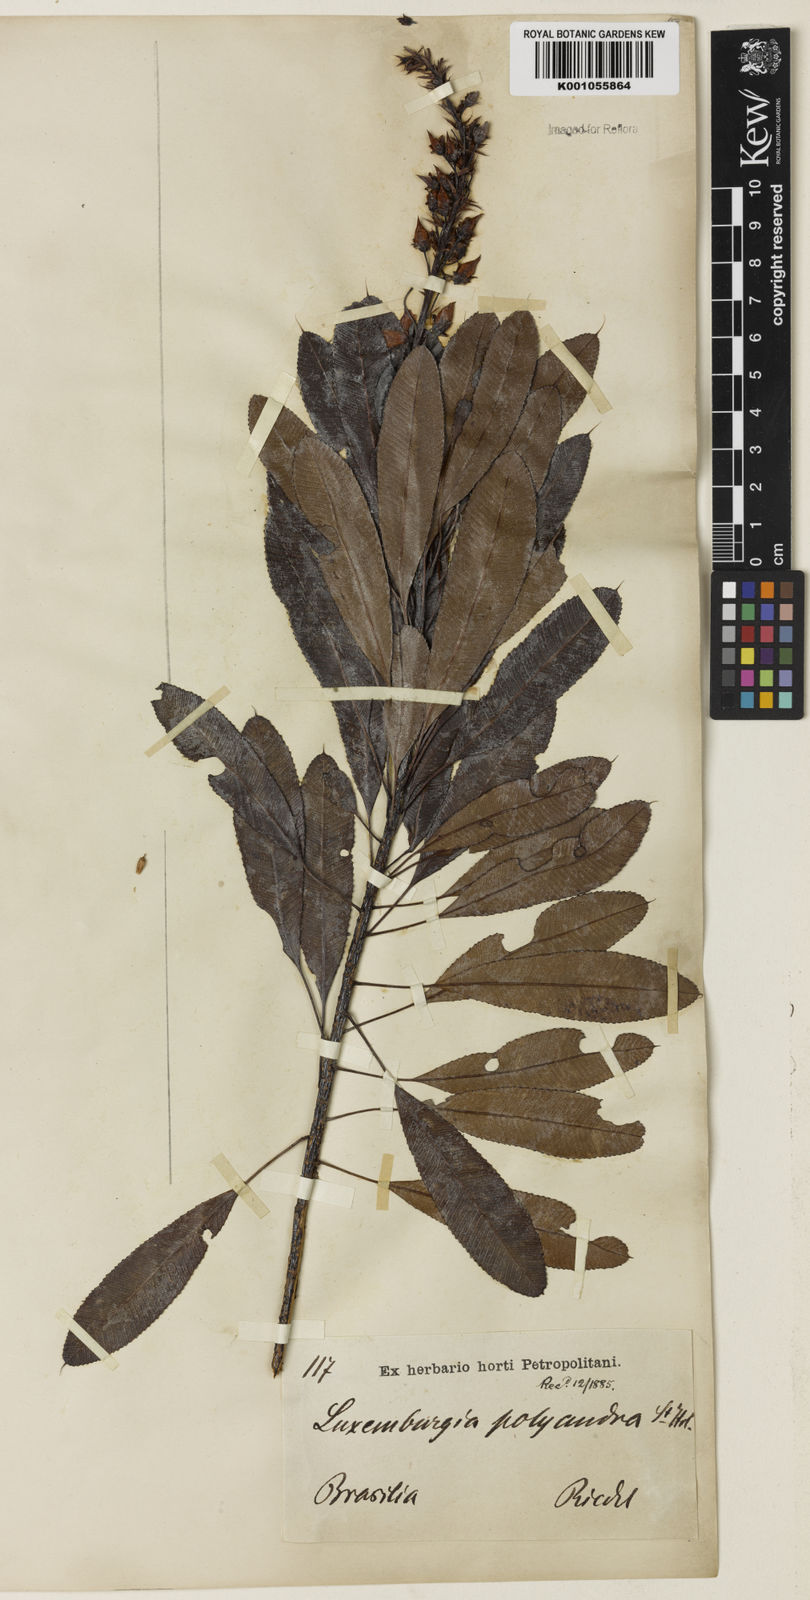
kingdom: Plantae
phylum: Tracheophyta
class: Magnoliopsida
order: Malpighiales
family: Ochnaceae
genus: Luxemburgia
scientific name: Luxemburgia polyandra
